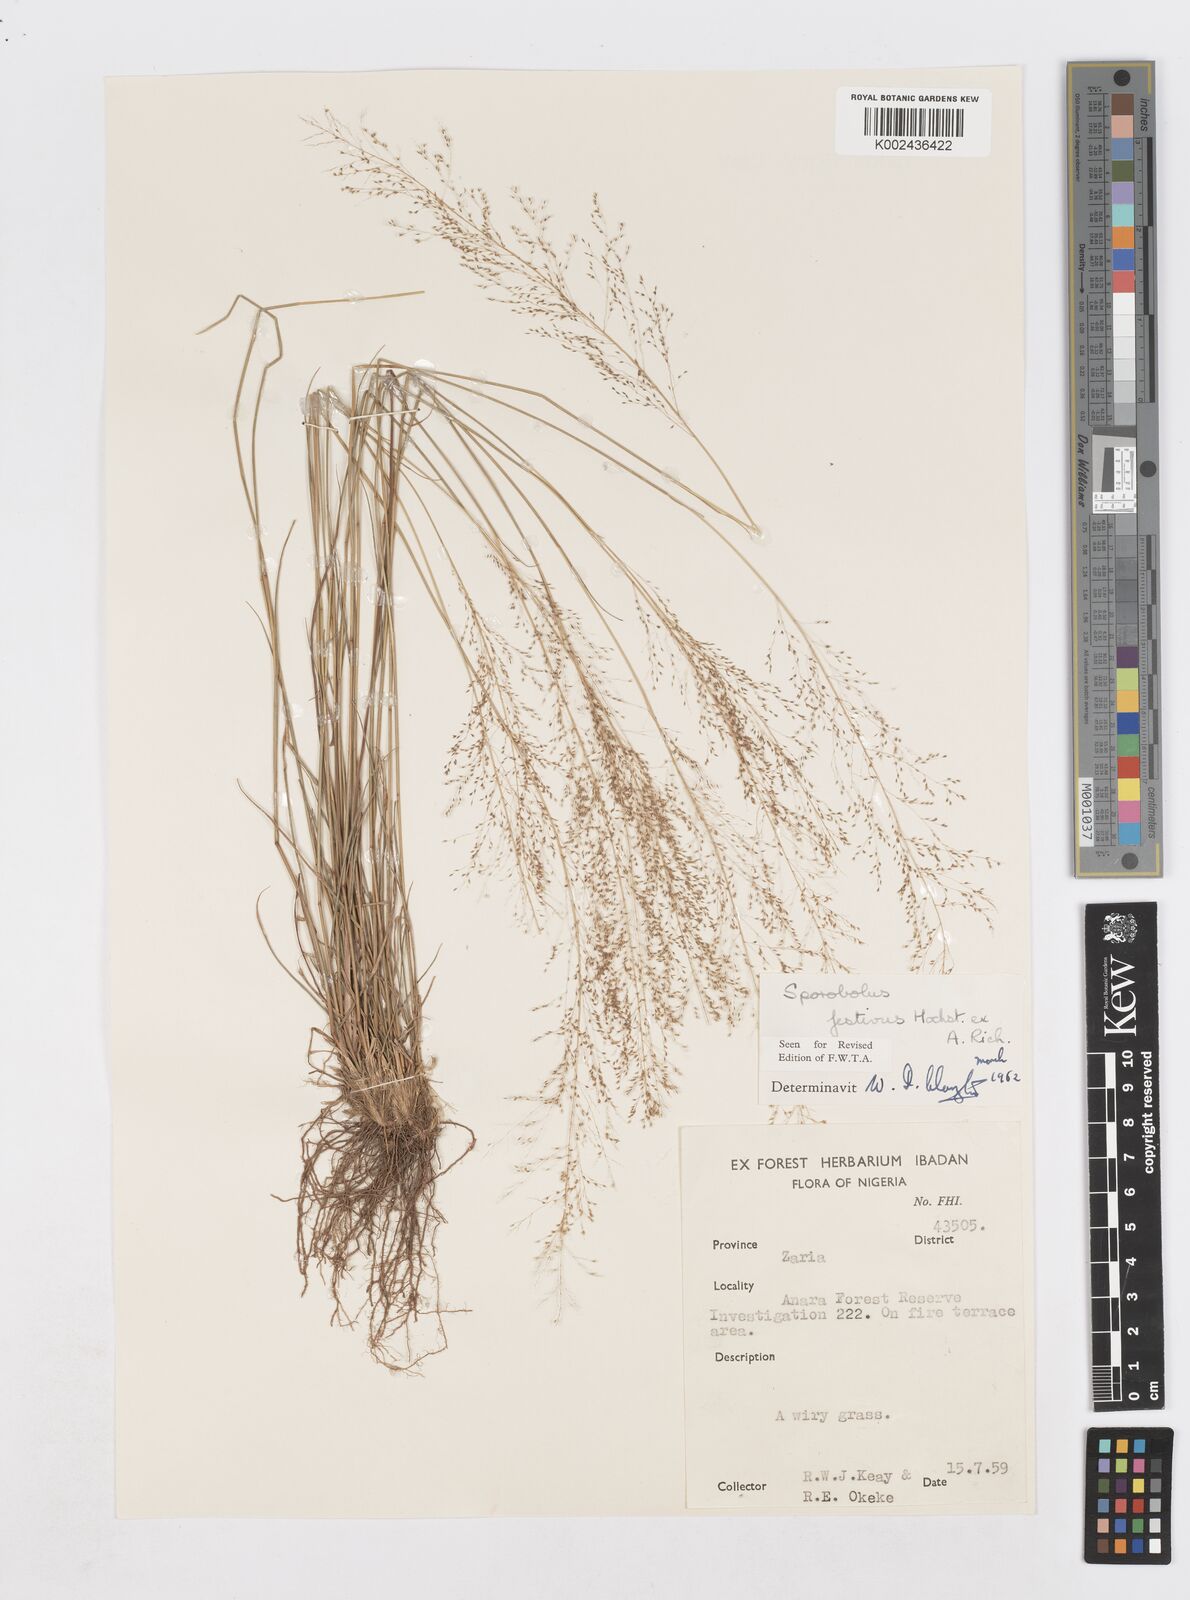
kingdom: Plantae
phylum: Tracheophyta
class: Liliopsida
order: Poales
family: Poaceae
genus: Sporobolus
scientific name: Sporobolus festivus
